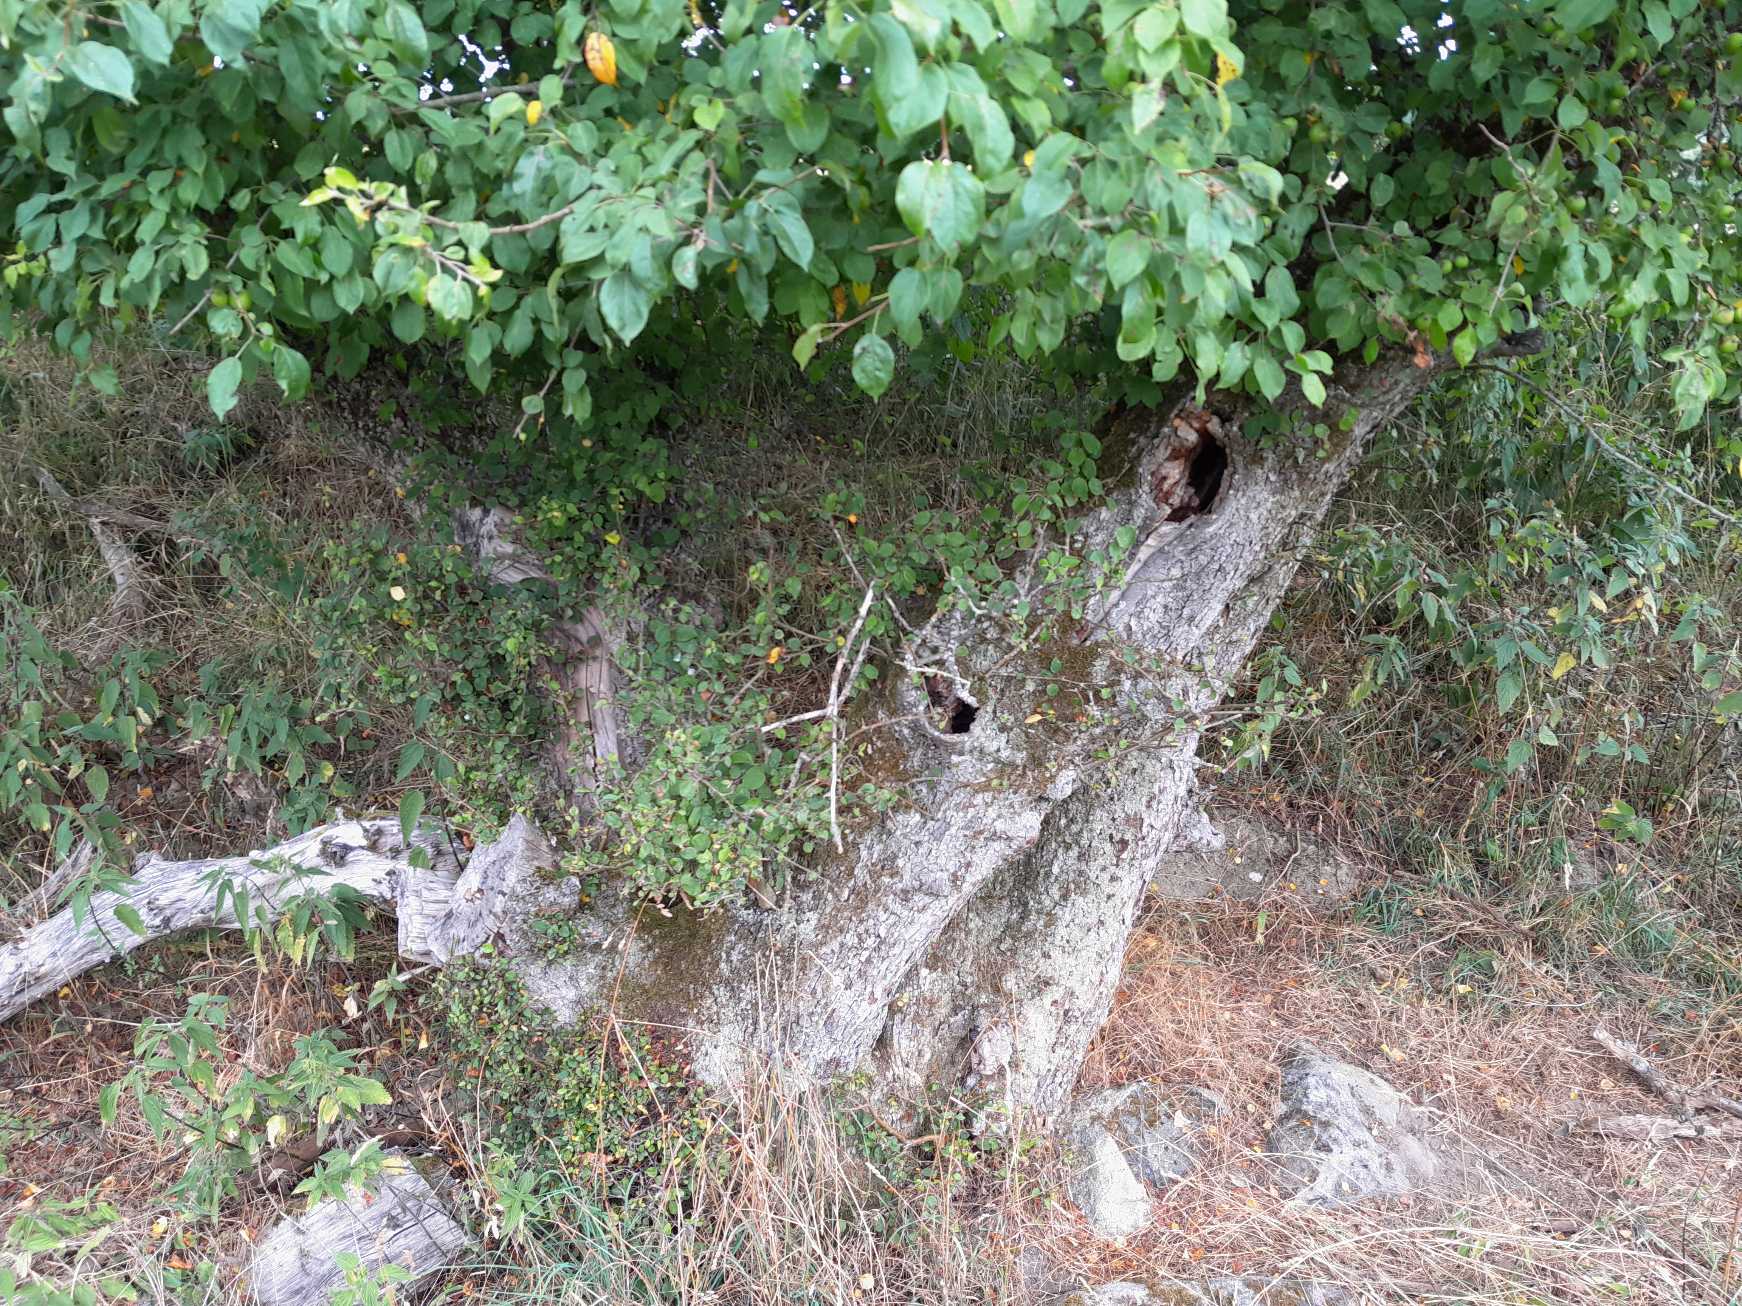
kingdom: Plantae
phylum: Tracheophyta
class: Magnoliopsida
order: Rosales
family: Rosaceae
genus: Malus
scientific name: Malus
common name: Æbleslægten
